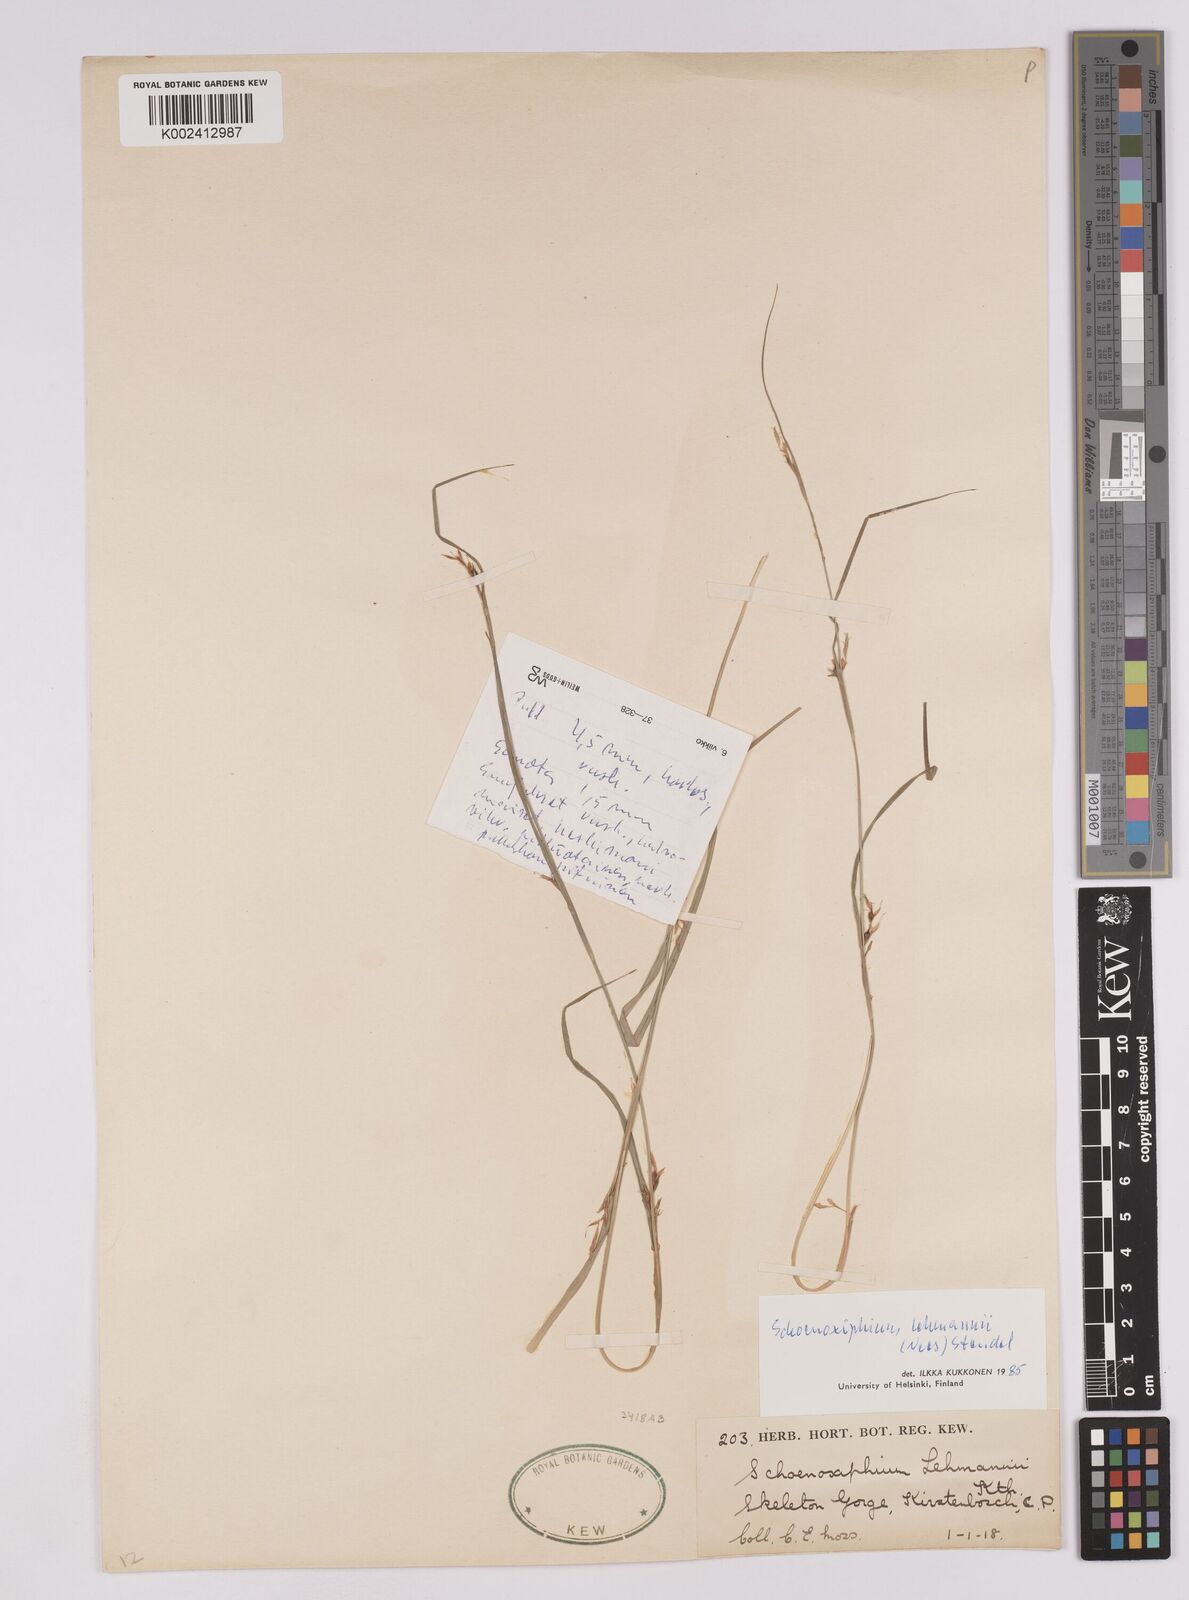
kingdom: Plantae
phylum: Tracheophyta
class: Liliopsida
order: Poales
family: Cyperaceae
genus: Carex
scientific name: Carex uhligii
